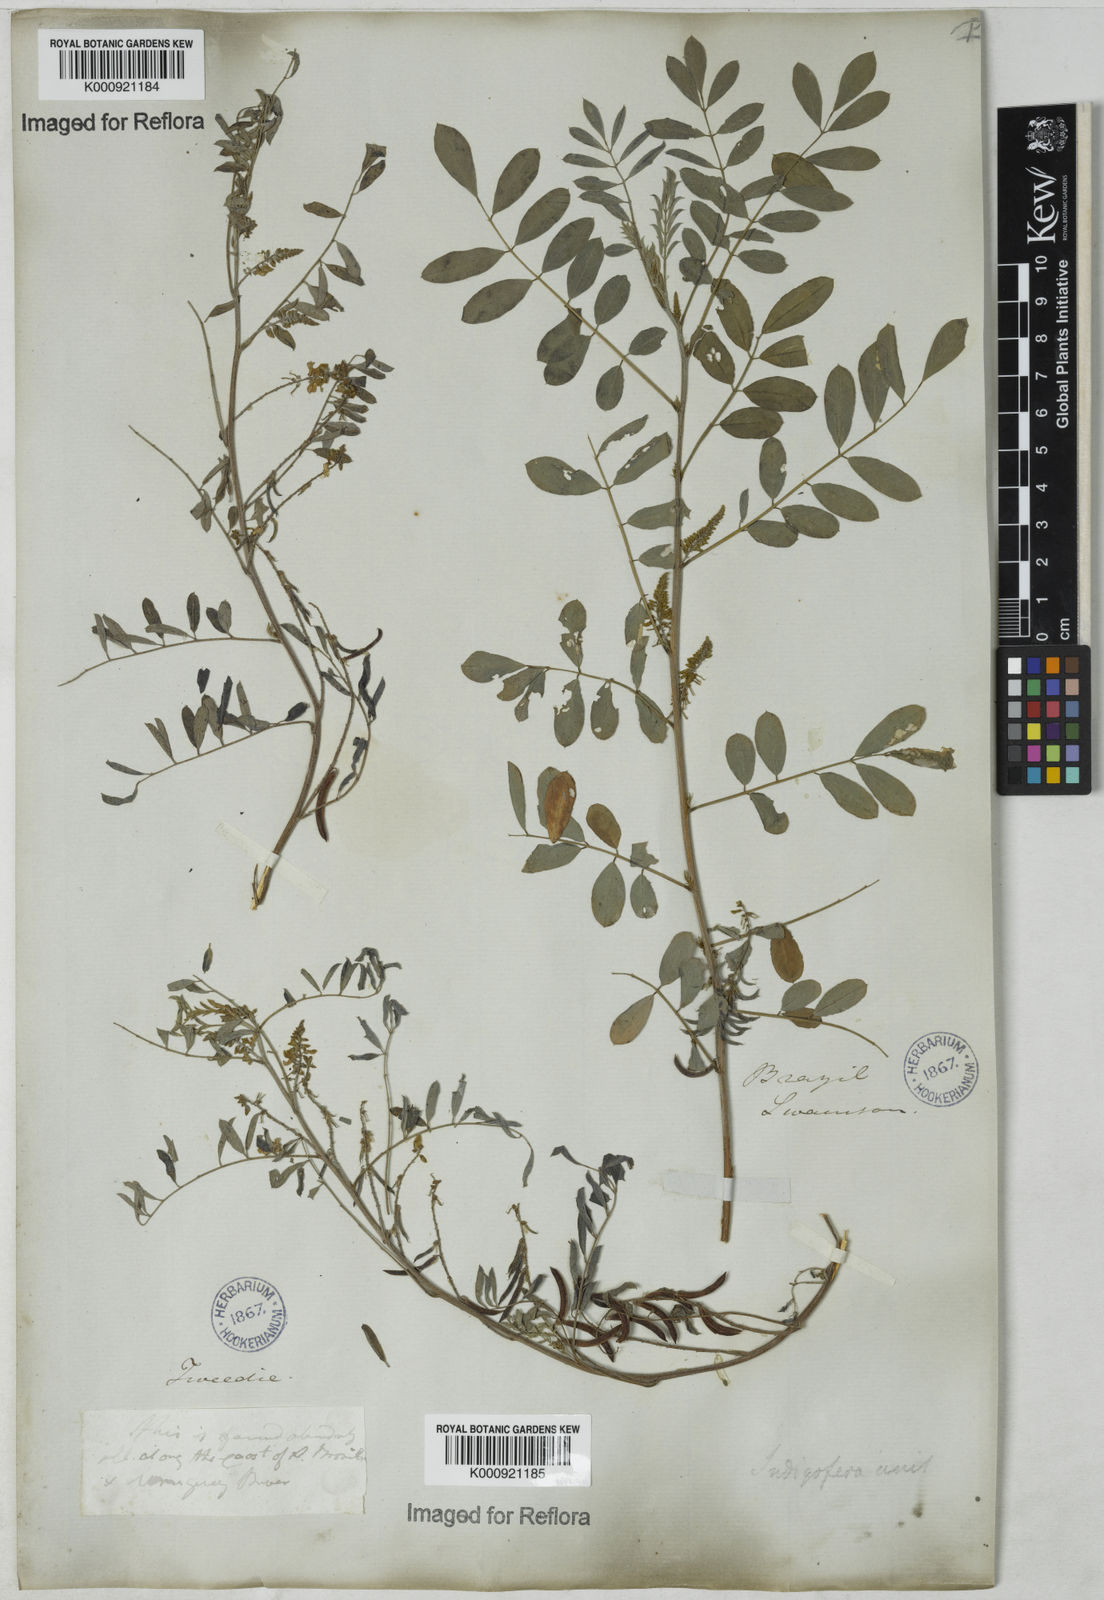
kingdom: Plantae
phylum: Tracheophyta
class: Magnoliopsida
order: Fabales
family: Fabaceae
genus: Indigofera
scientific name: Indigofera suffruticosa
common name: Anil de pasto
